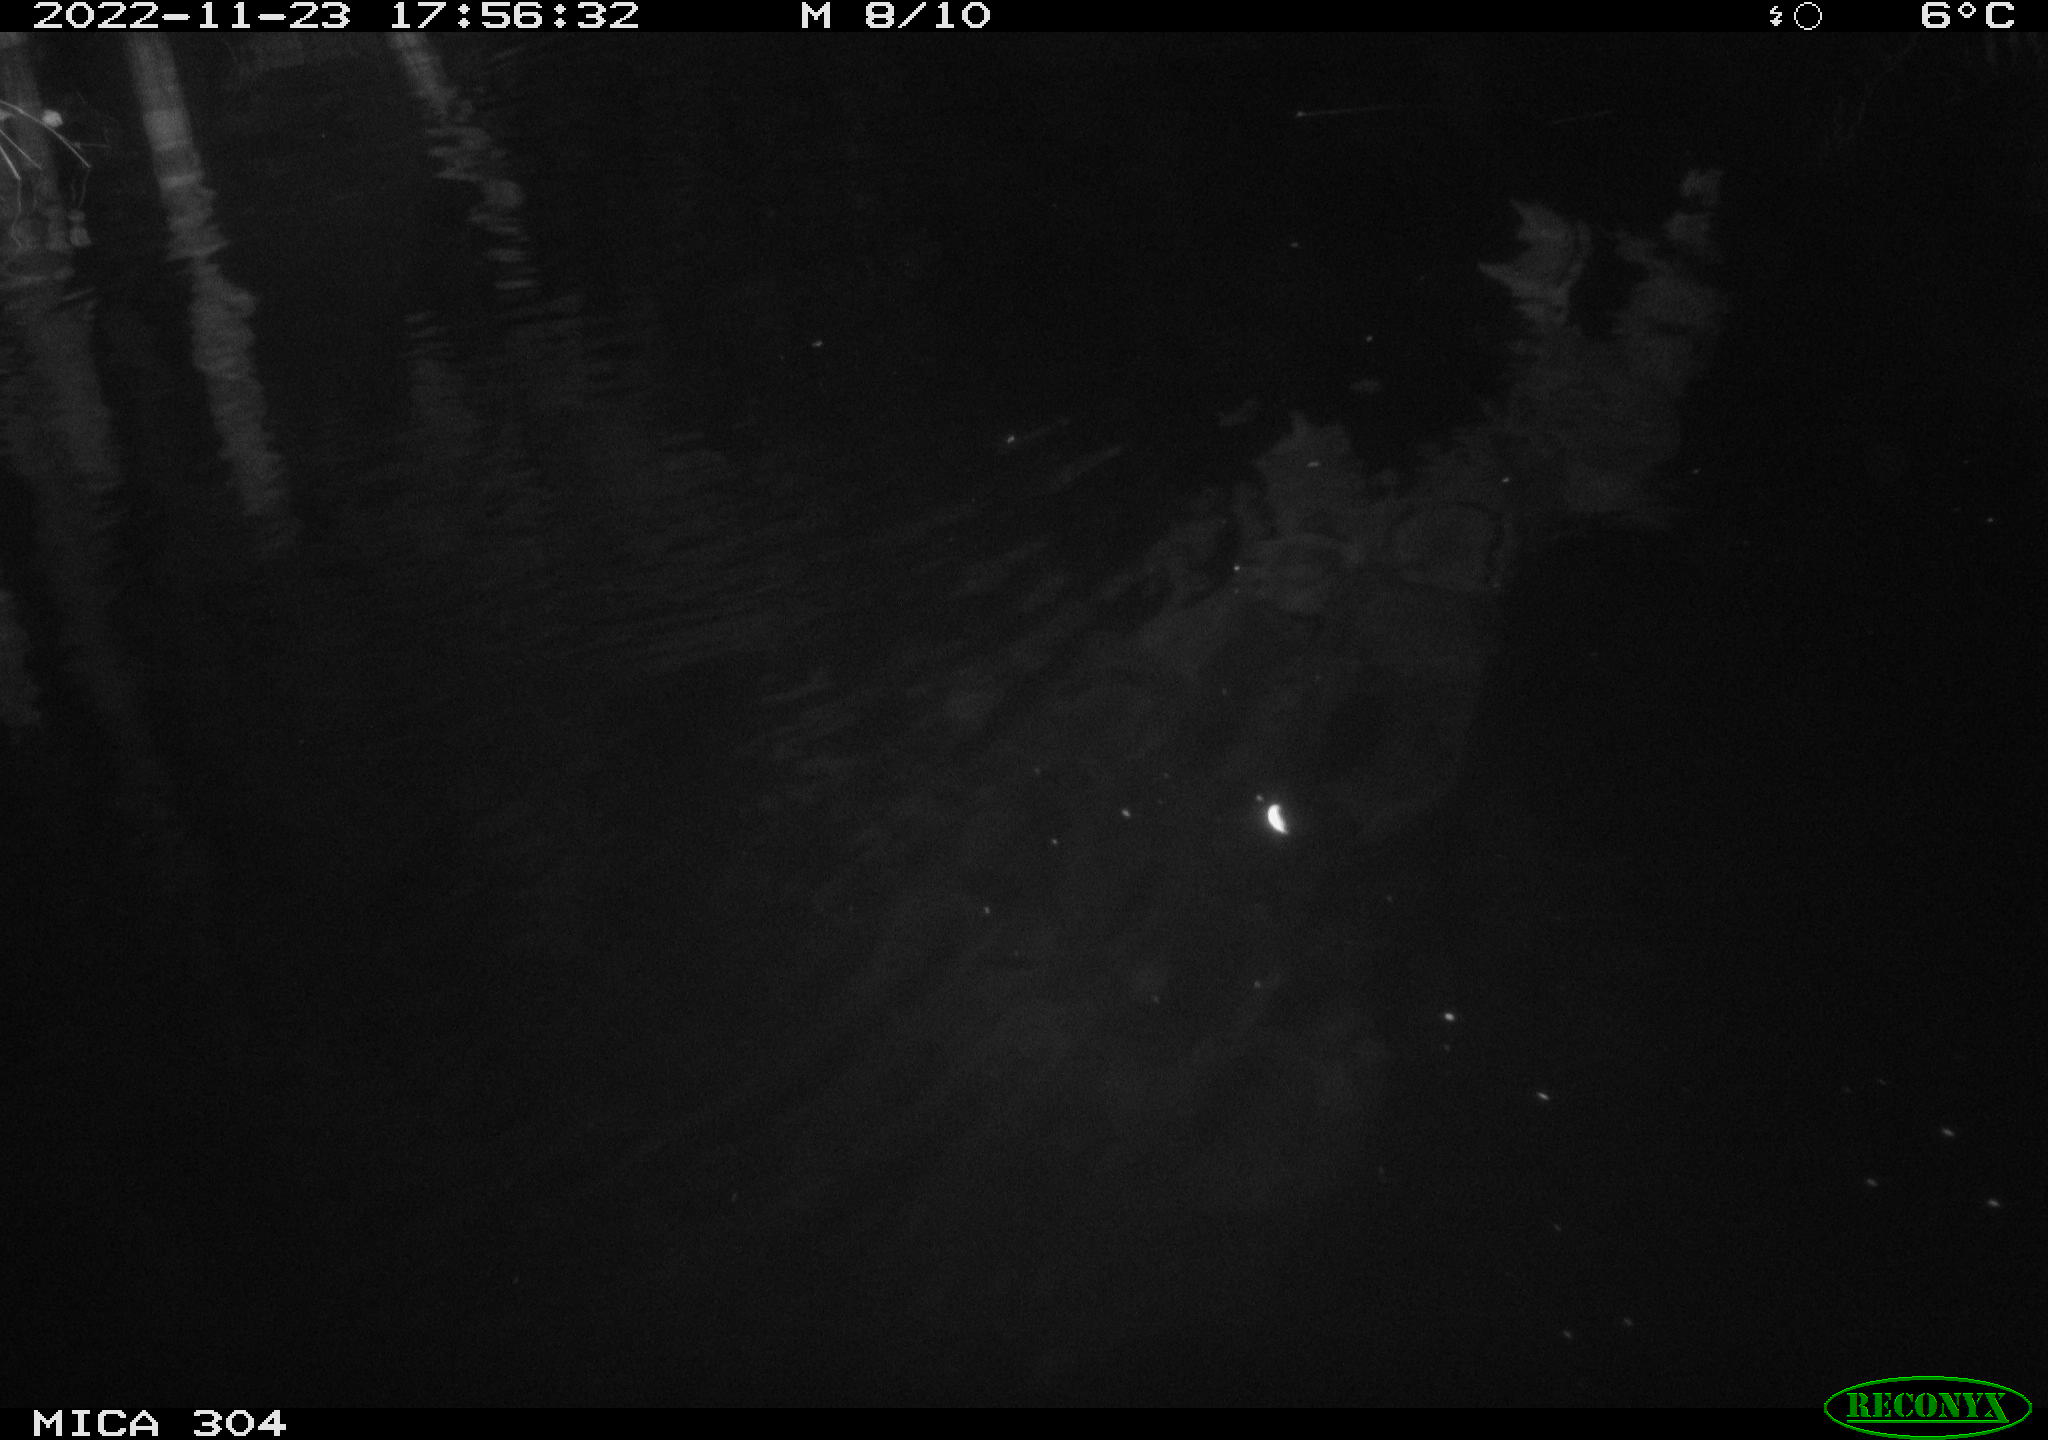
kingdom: Animalia
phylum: Chordata
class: Mammalia
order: Rodentia
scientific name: Rodentia
